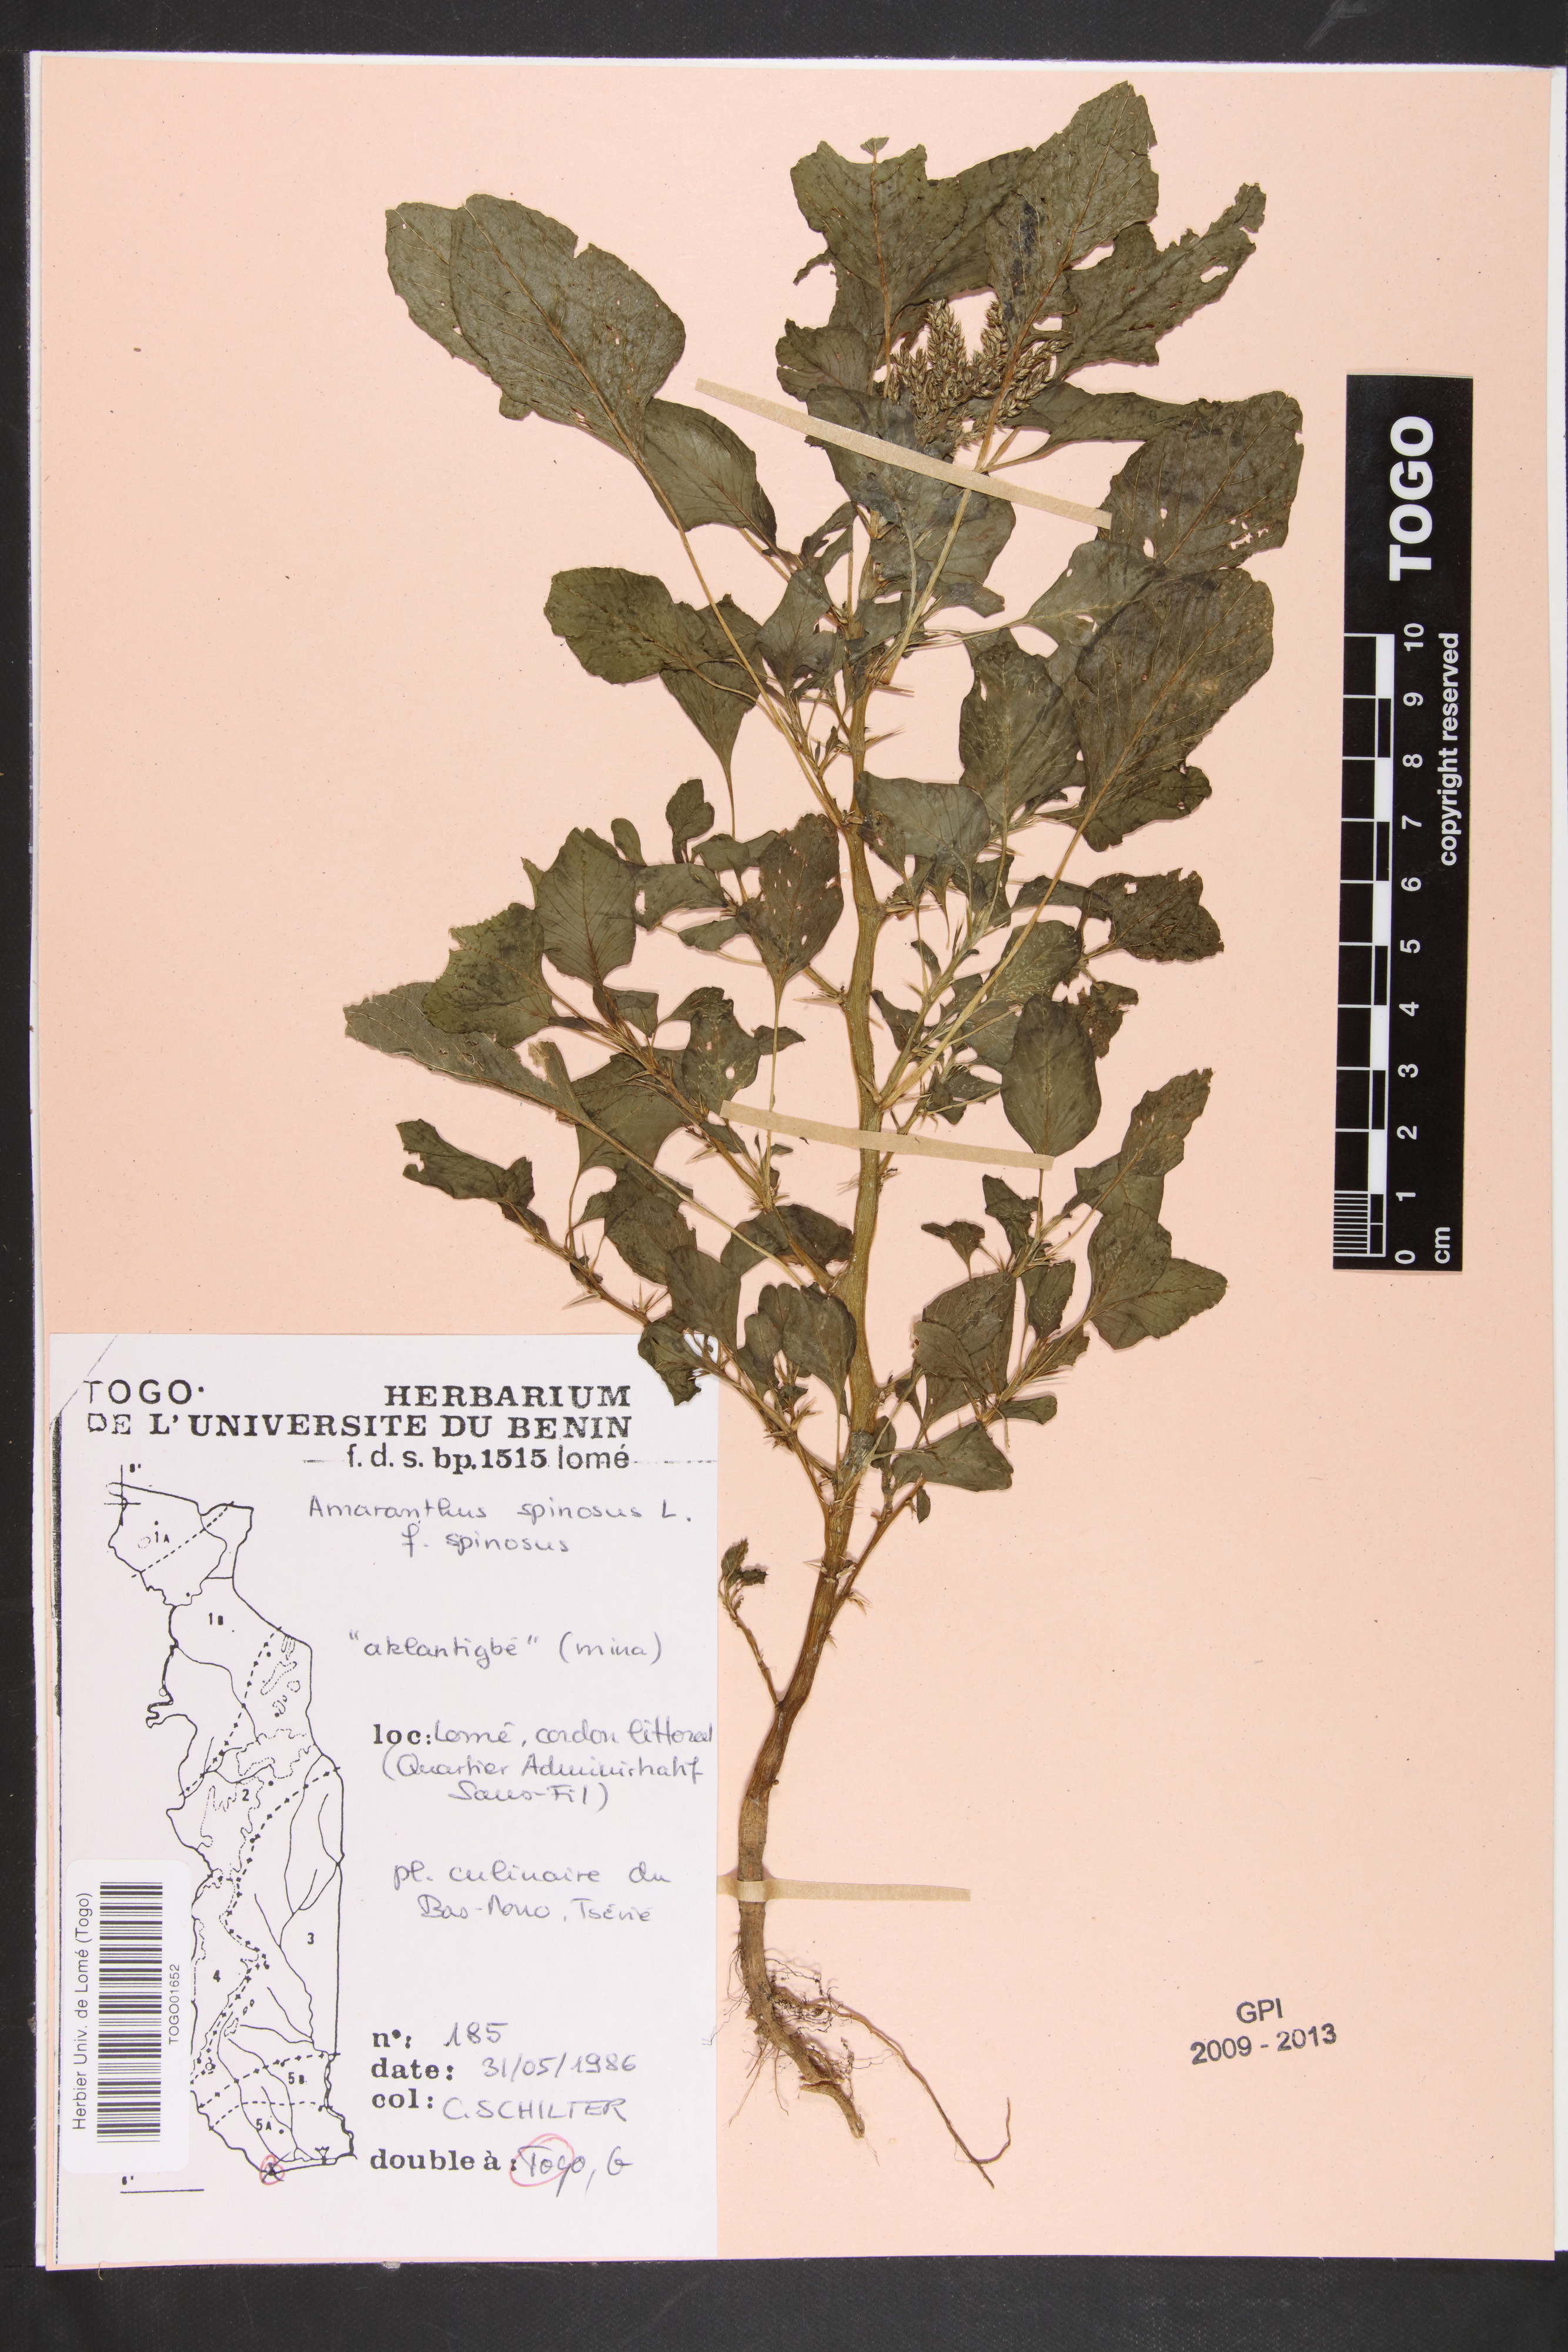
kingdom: Plantae
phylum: Tracheophyta
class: Magnoliopsida
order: Caryophyllales
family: Amaranthaceae
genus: Amaranthus
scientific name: Amaranthus spinosus
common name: Spiny amaranth
